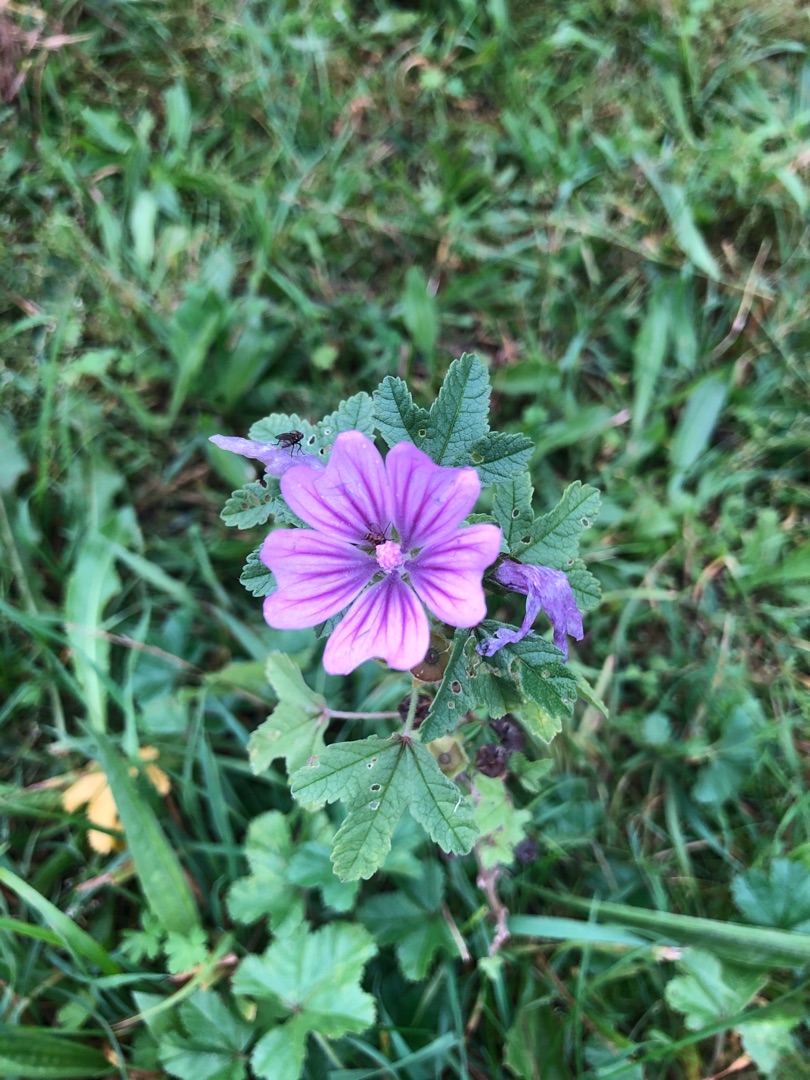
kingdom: Plantae
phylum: Tracheophyta
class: Magnoliopsida
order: Malvales
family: Malvaceae
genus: Malva
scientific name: Malva sylvestris
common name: Almindelig katost
